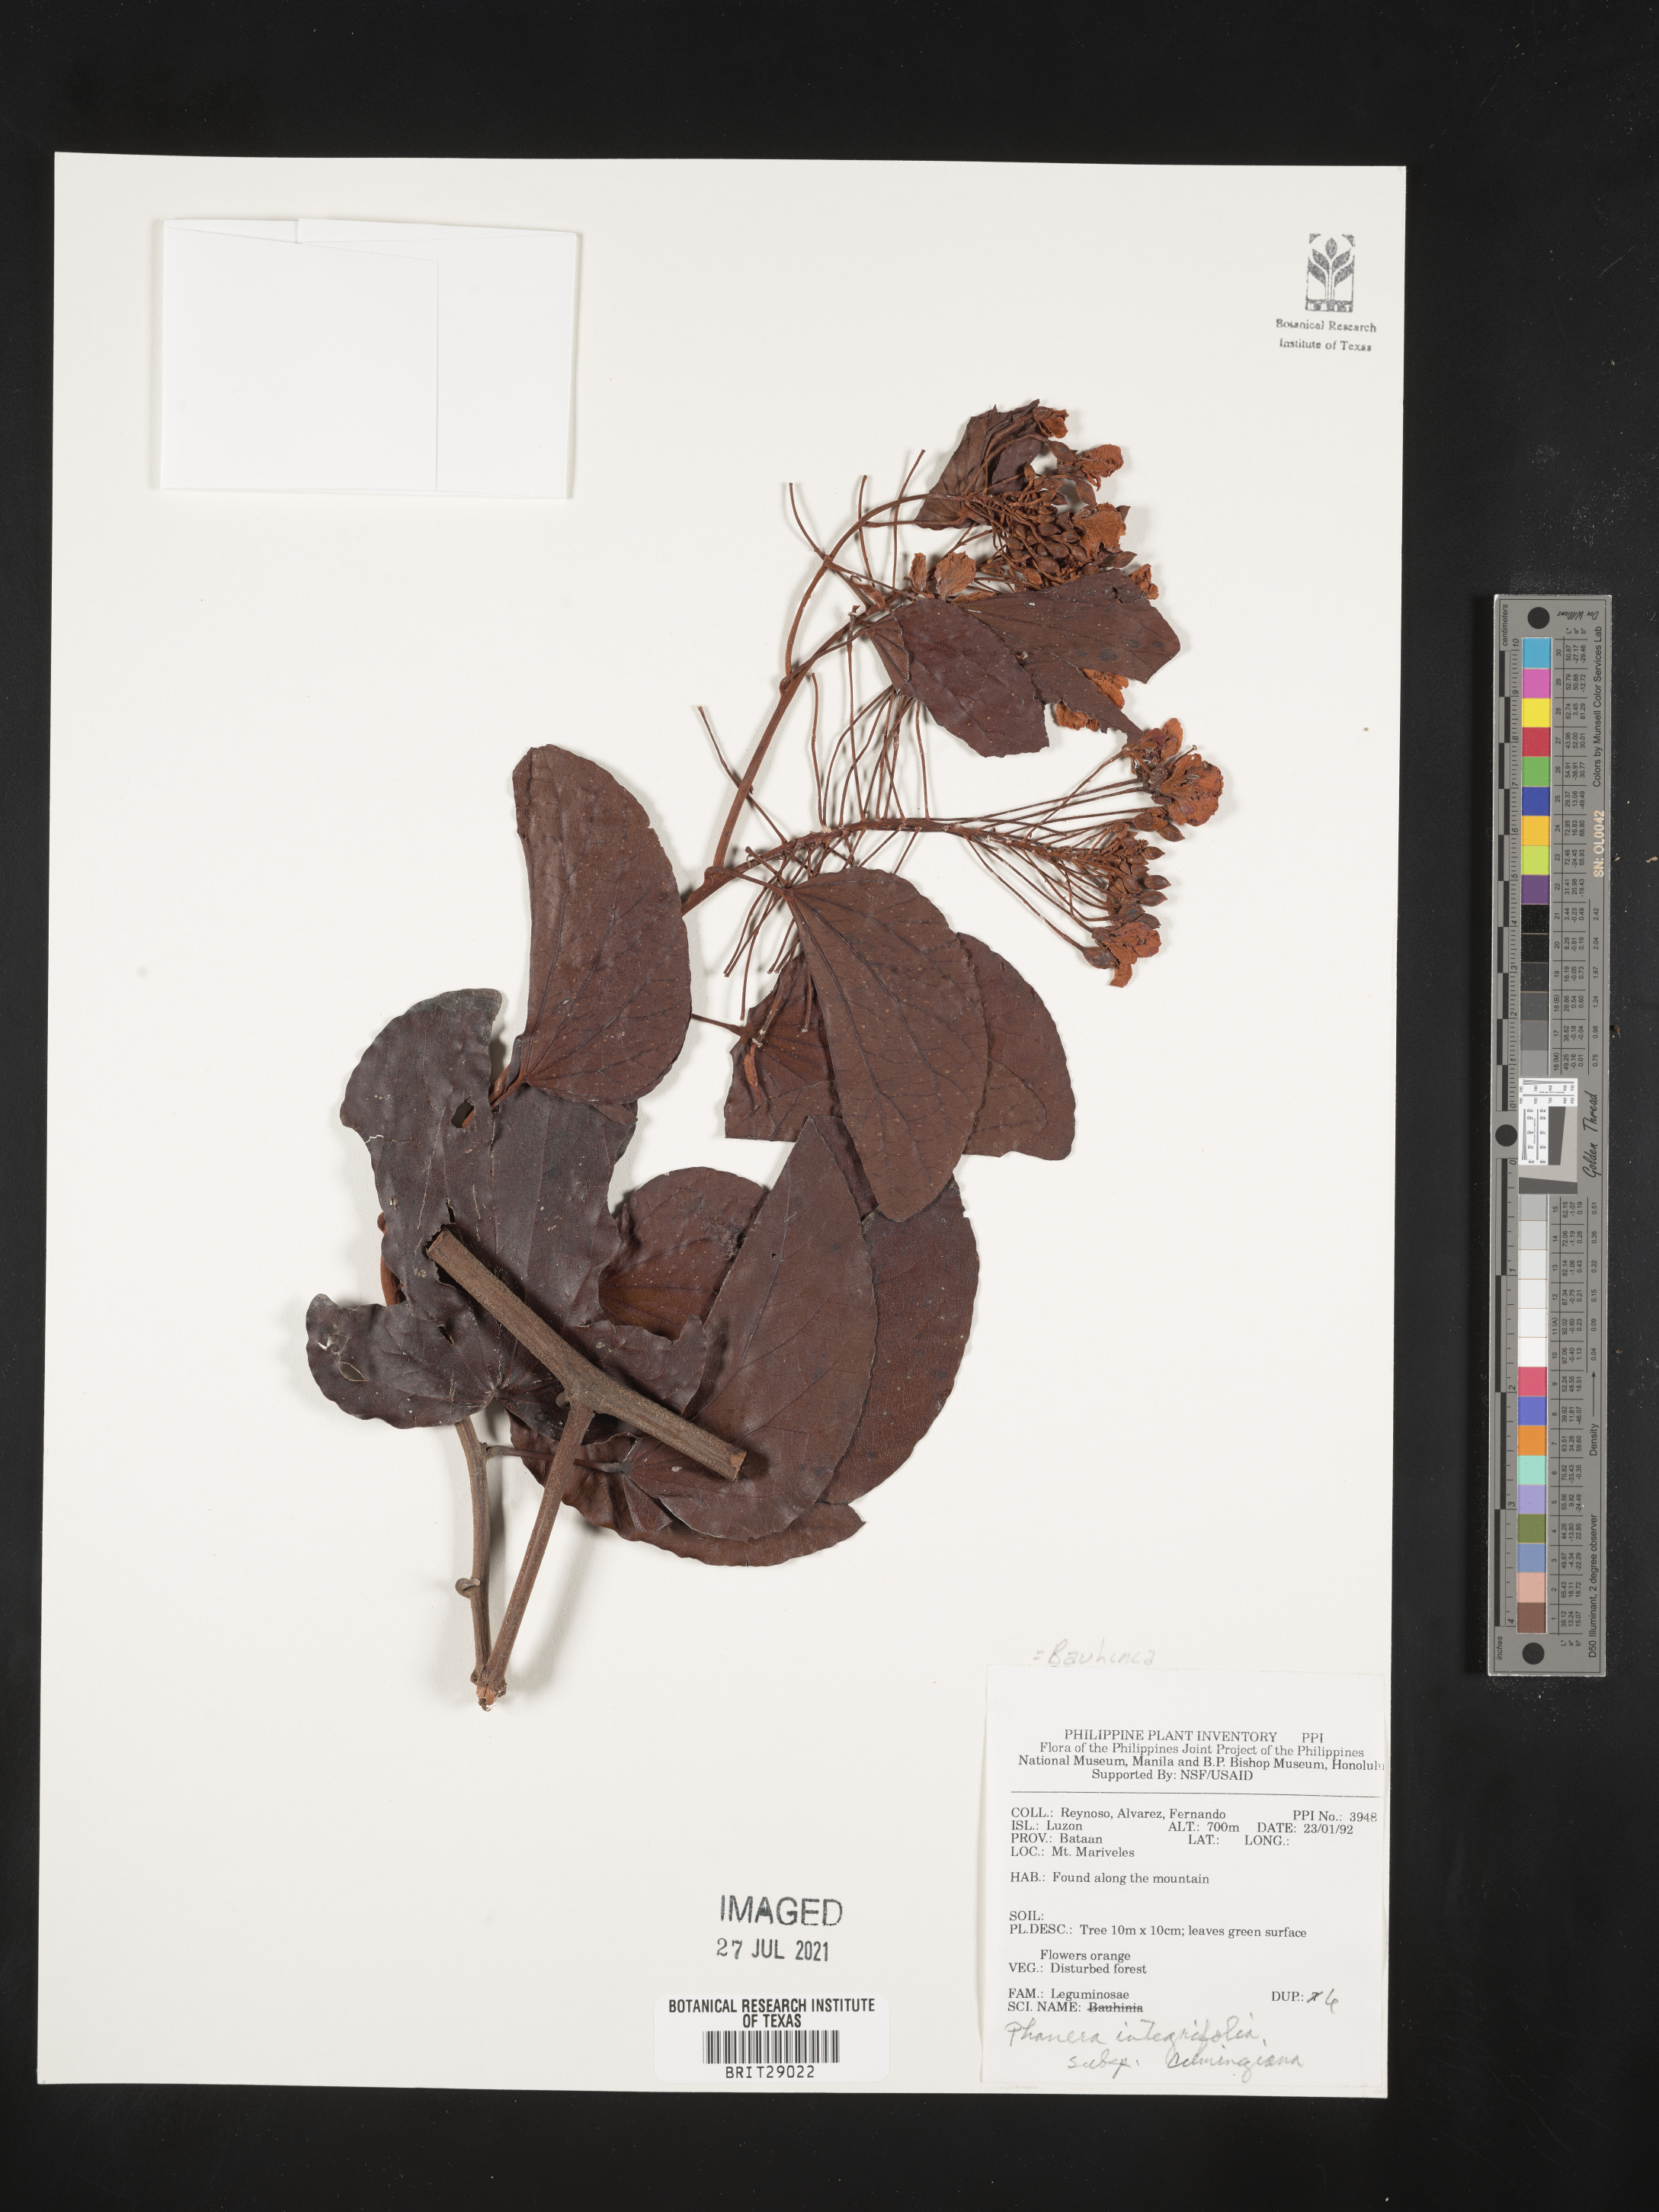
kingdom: Plantae
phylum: Tracheophyta
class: Magnoliopsida
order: Fabales
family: Fabaceae
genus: Phanera
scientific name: Phanera integrifolia
